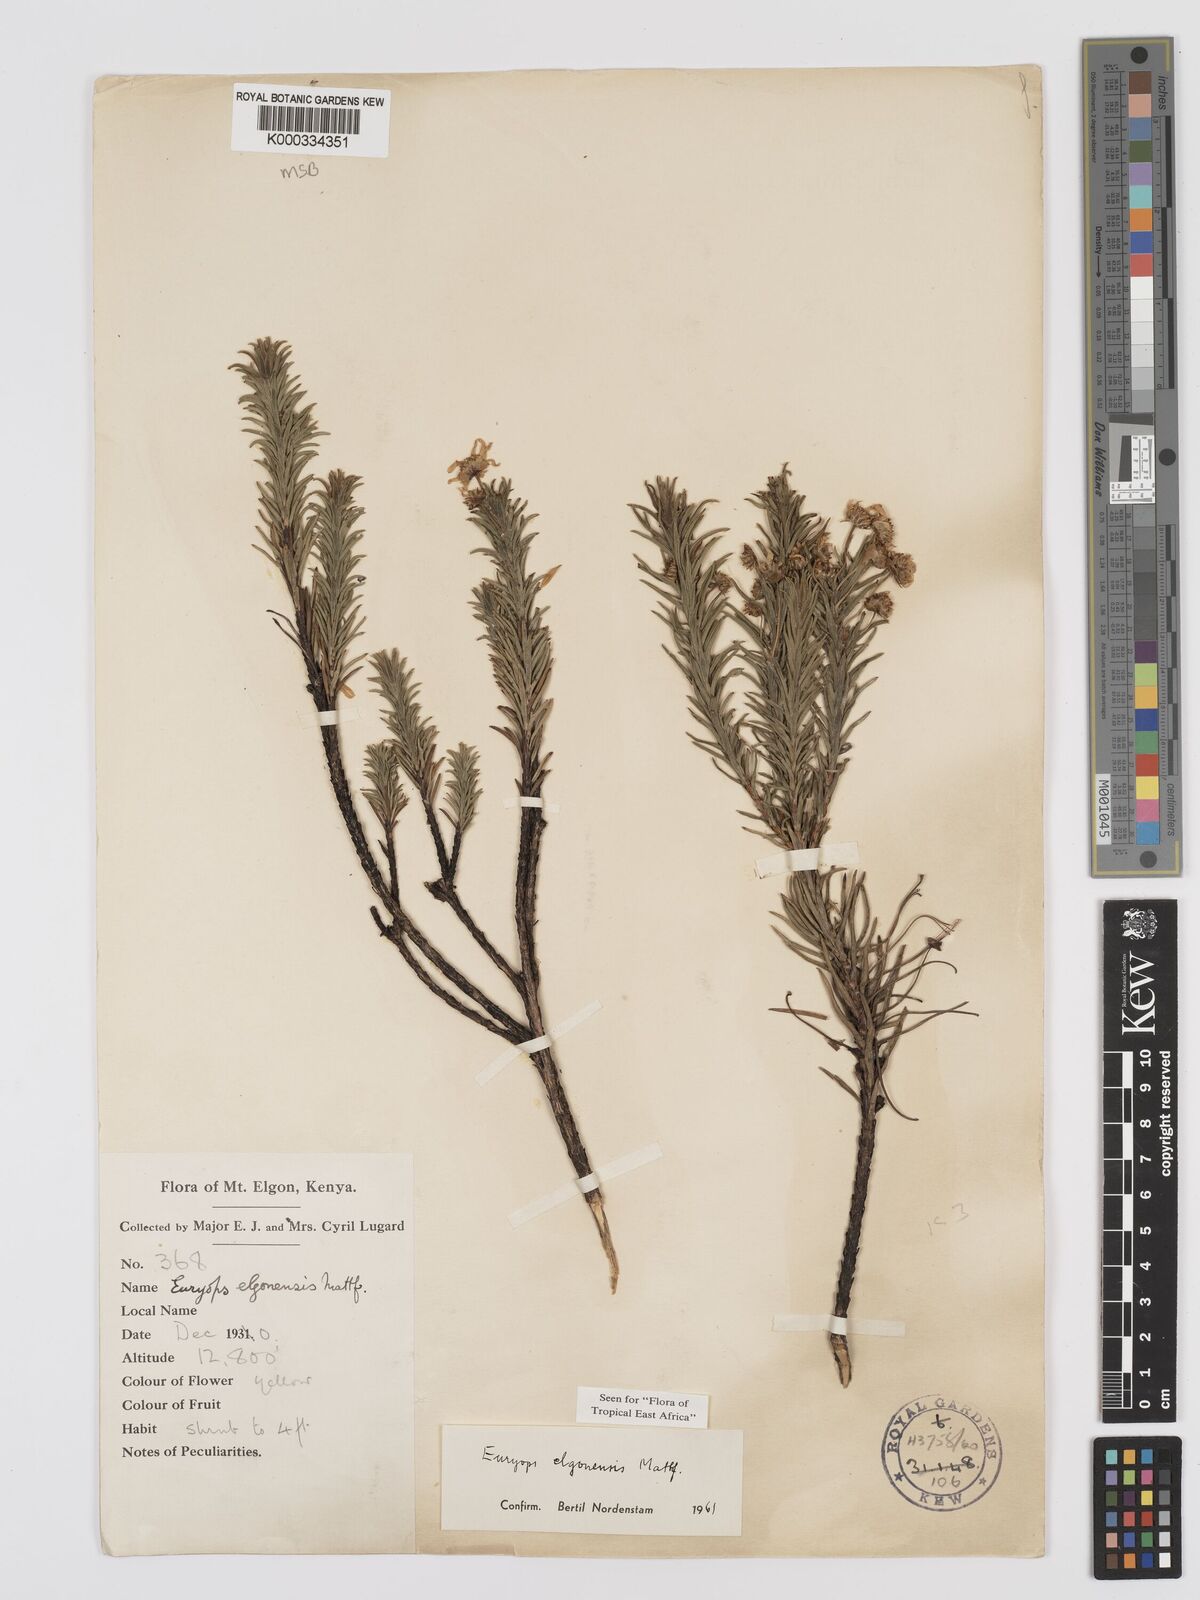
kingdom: Plantae
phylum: Tracheophyta
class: Magnoliopsida
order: Asterales
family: Asteraceae
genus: Euryops
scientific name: Euryops elgonensis
